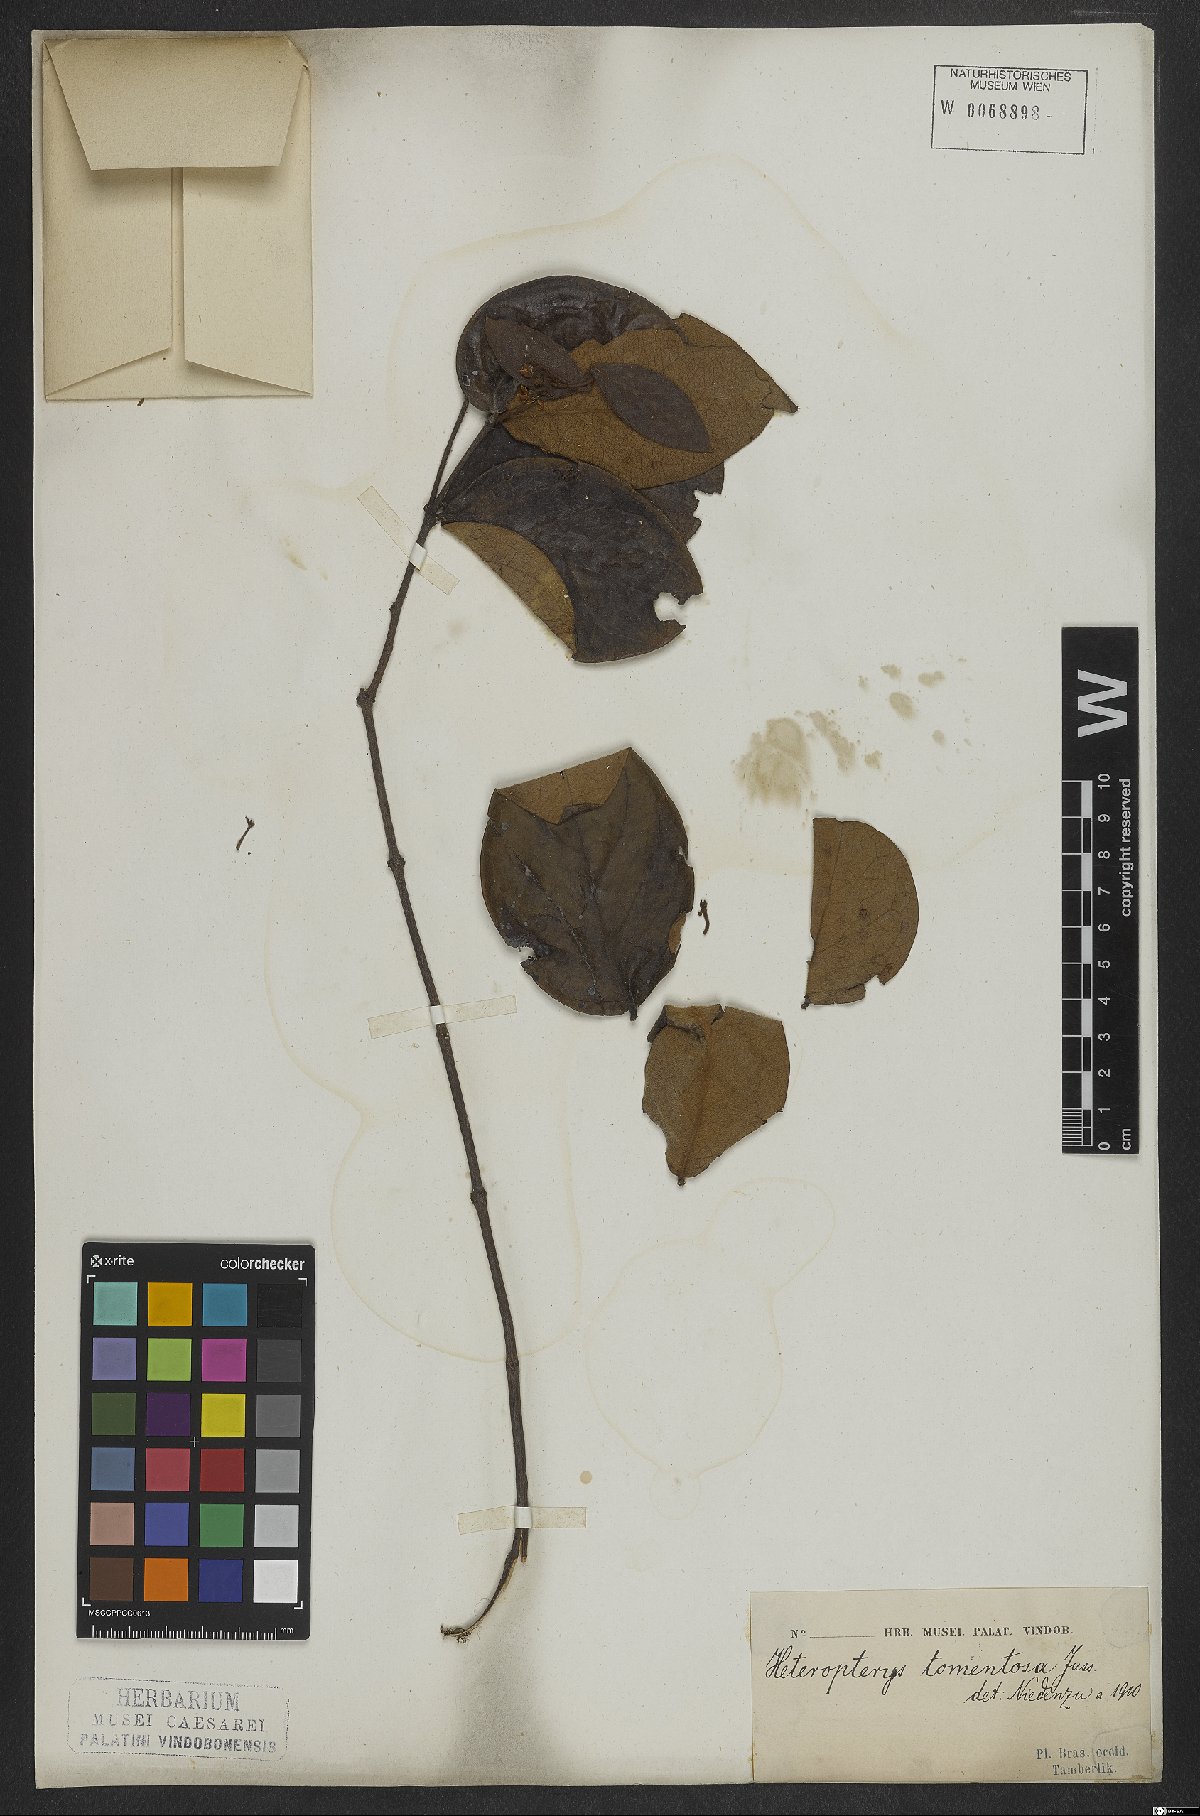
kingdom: Plantae
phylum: Tracheophyta
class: Magnoliopsida
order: Malpighiales
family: Malpighiaceae
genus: Heteropterys
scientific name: Heteropterys tomentosa
